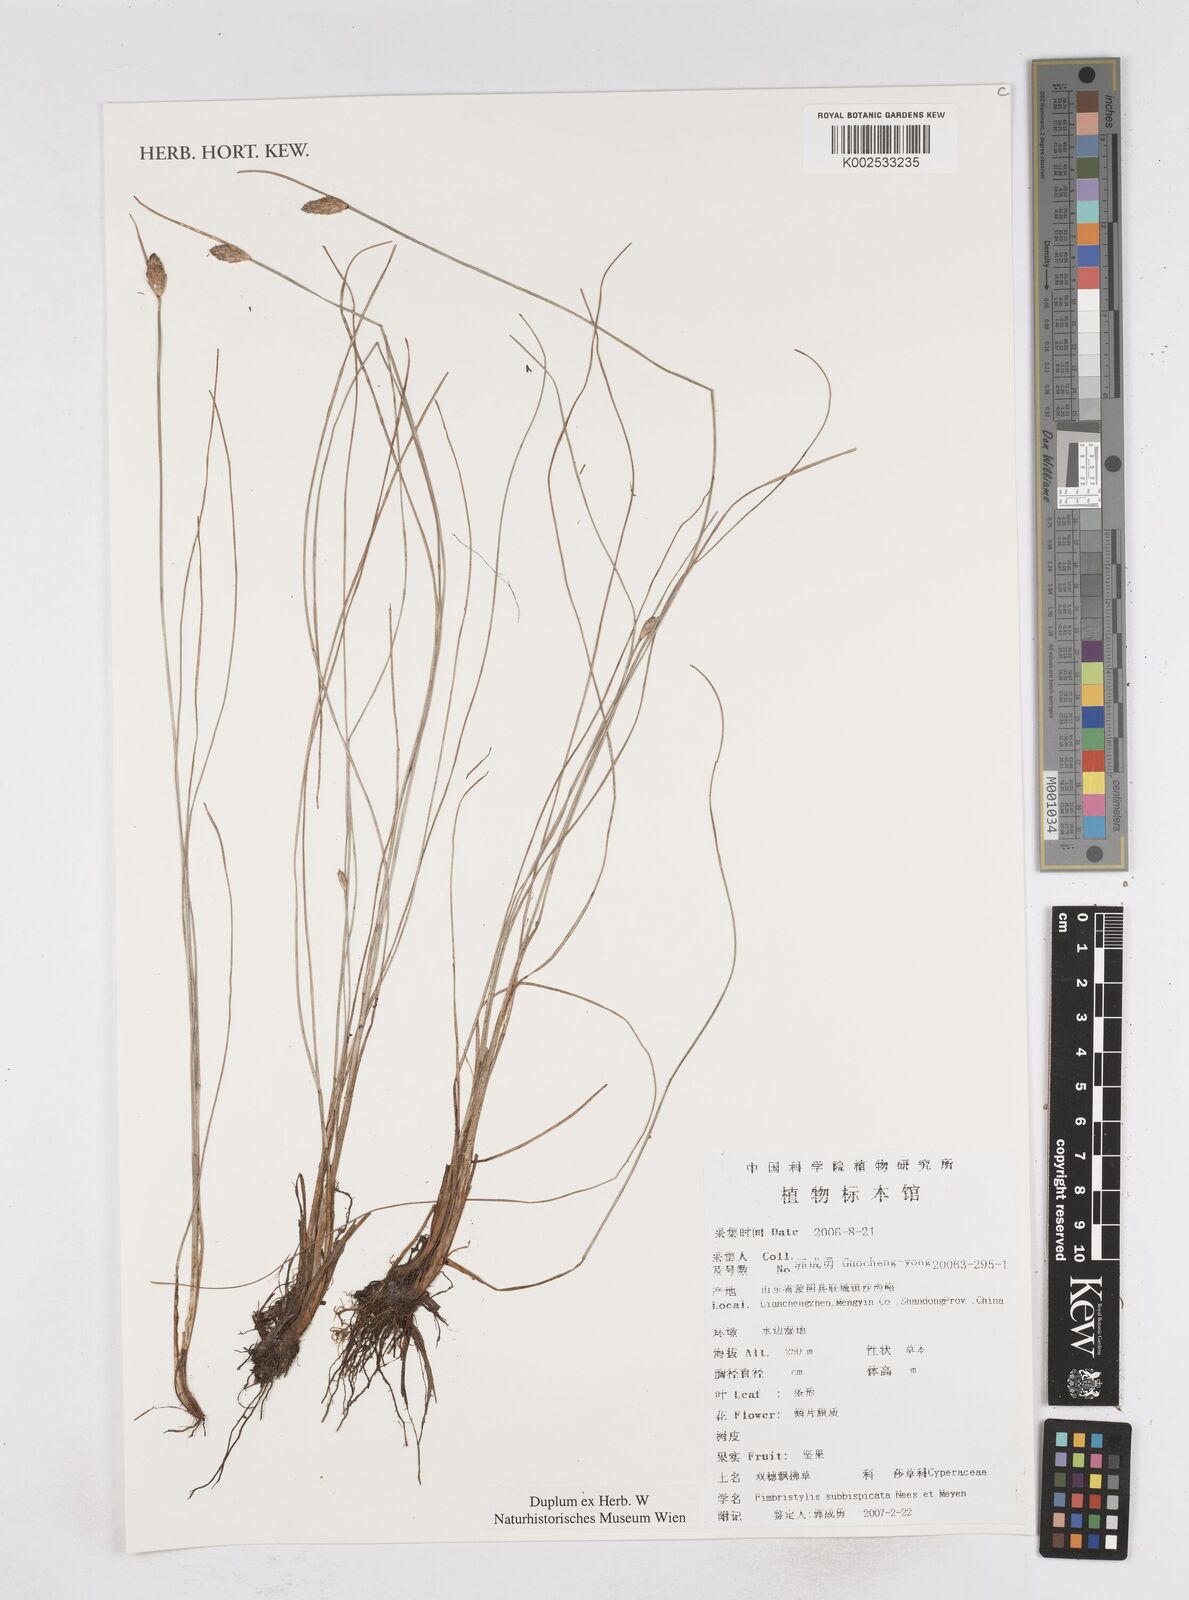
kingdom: Plantae
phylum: Tracheophyta
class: Liliopsida
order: Poales
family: Cyperaceae
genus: Fimbristylis
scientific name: Fimbristylis tristachya
